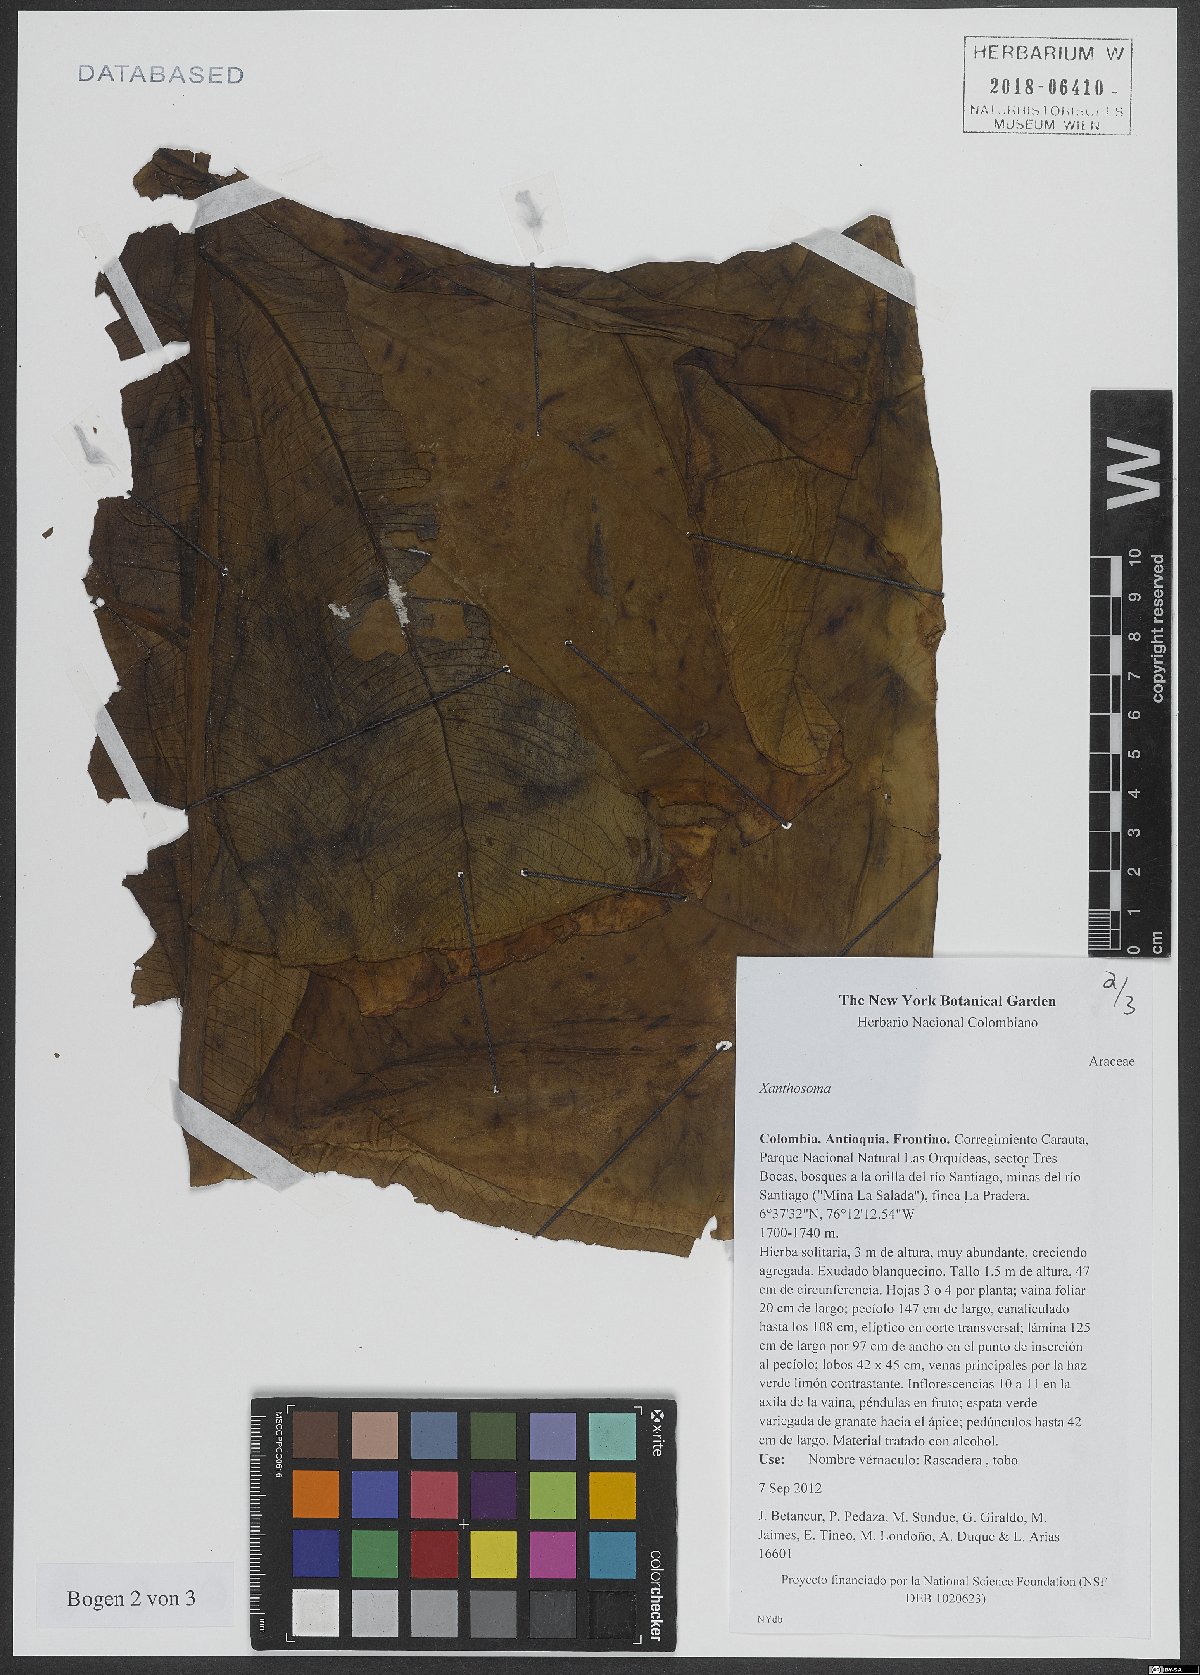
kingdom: Plantae
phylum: Tracheophyta
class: Liliopsida
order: Alismatales
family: Araceae
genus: Xanthosoma
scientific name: Xanthosoma
